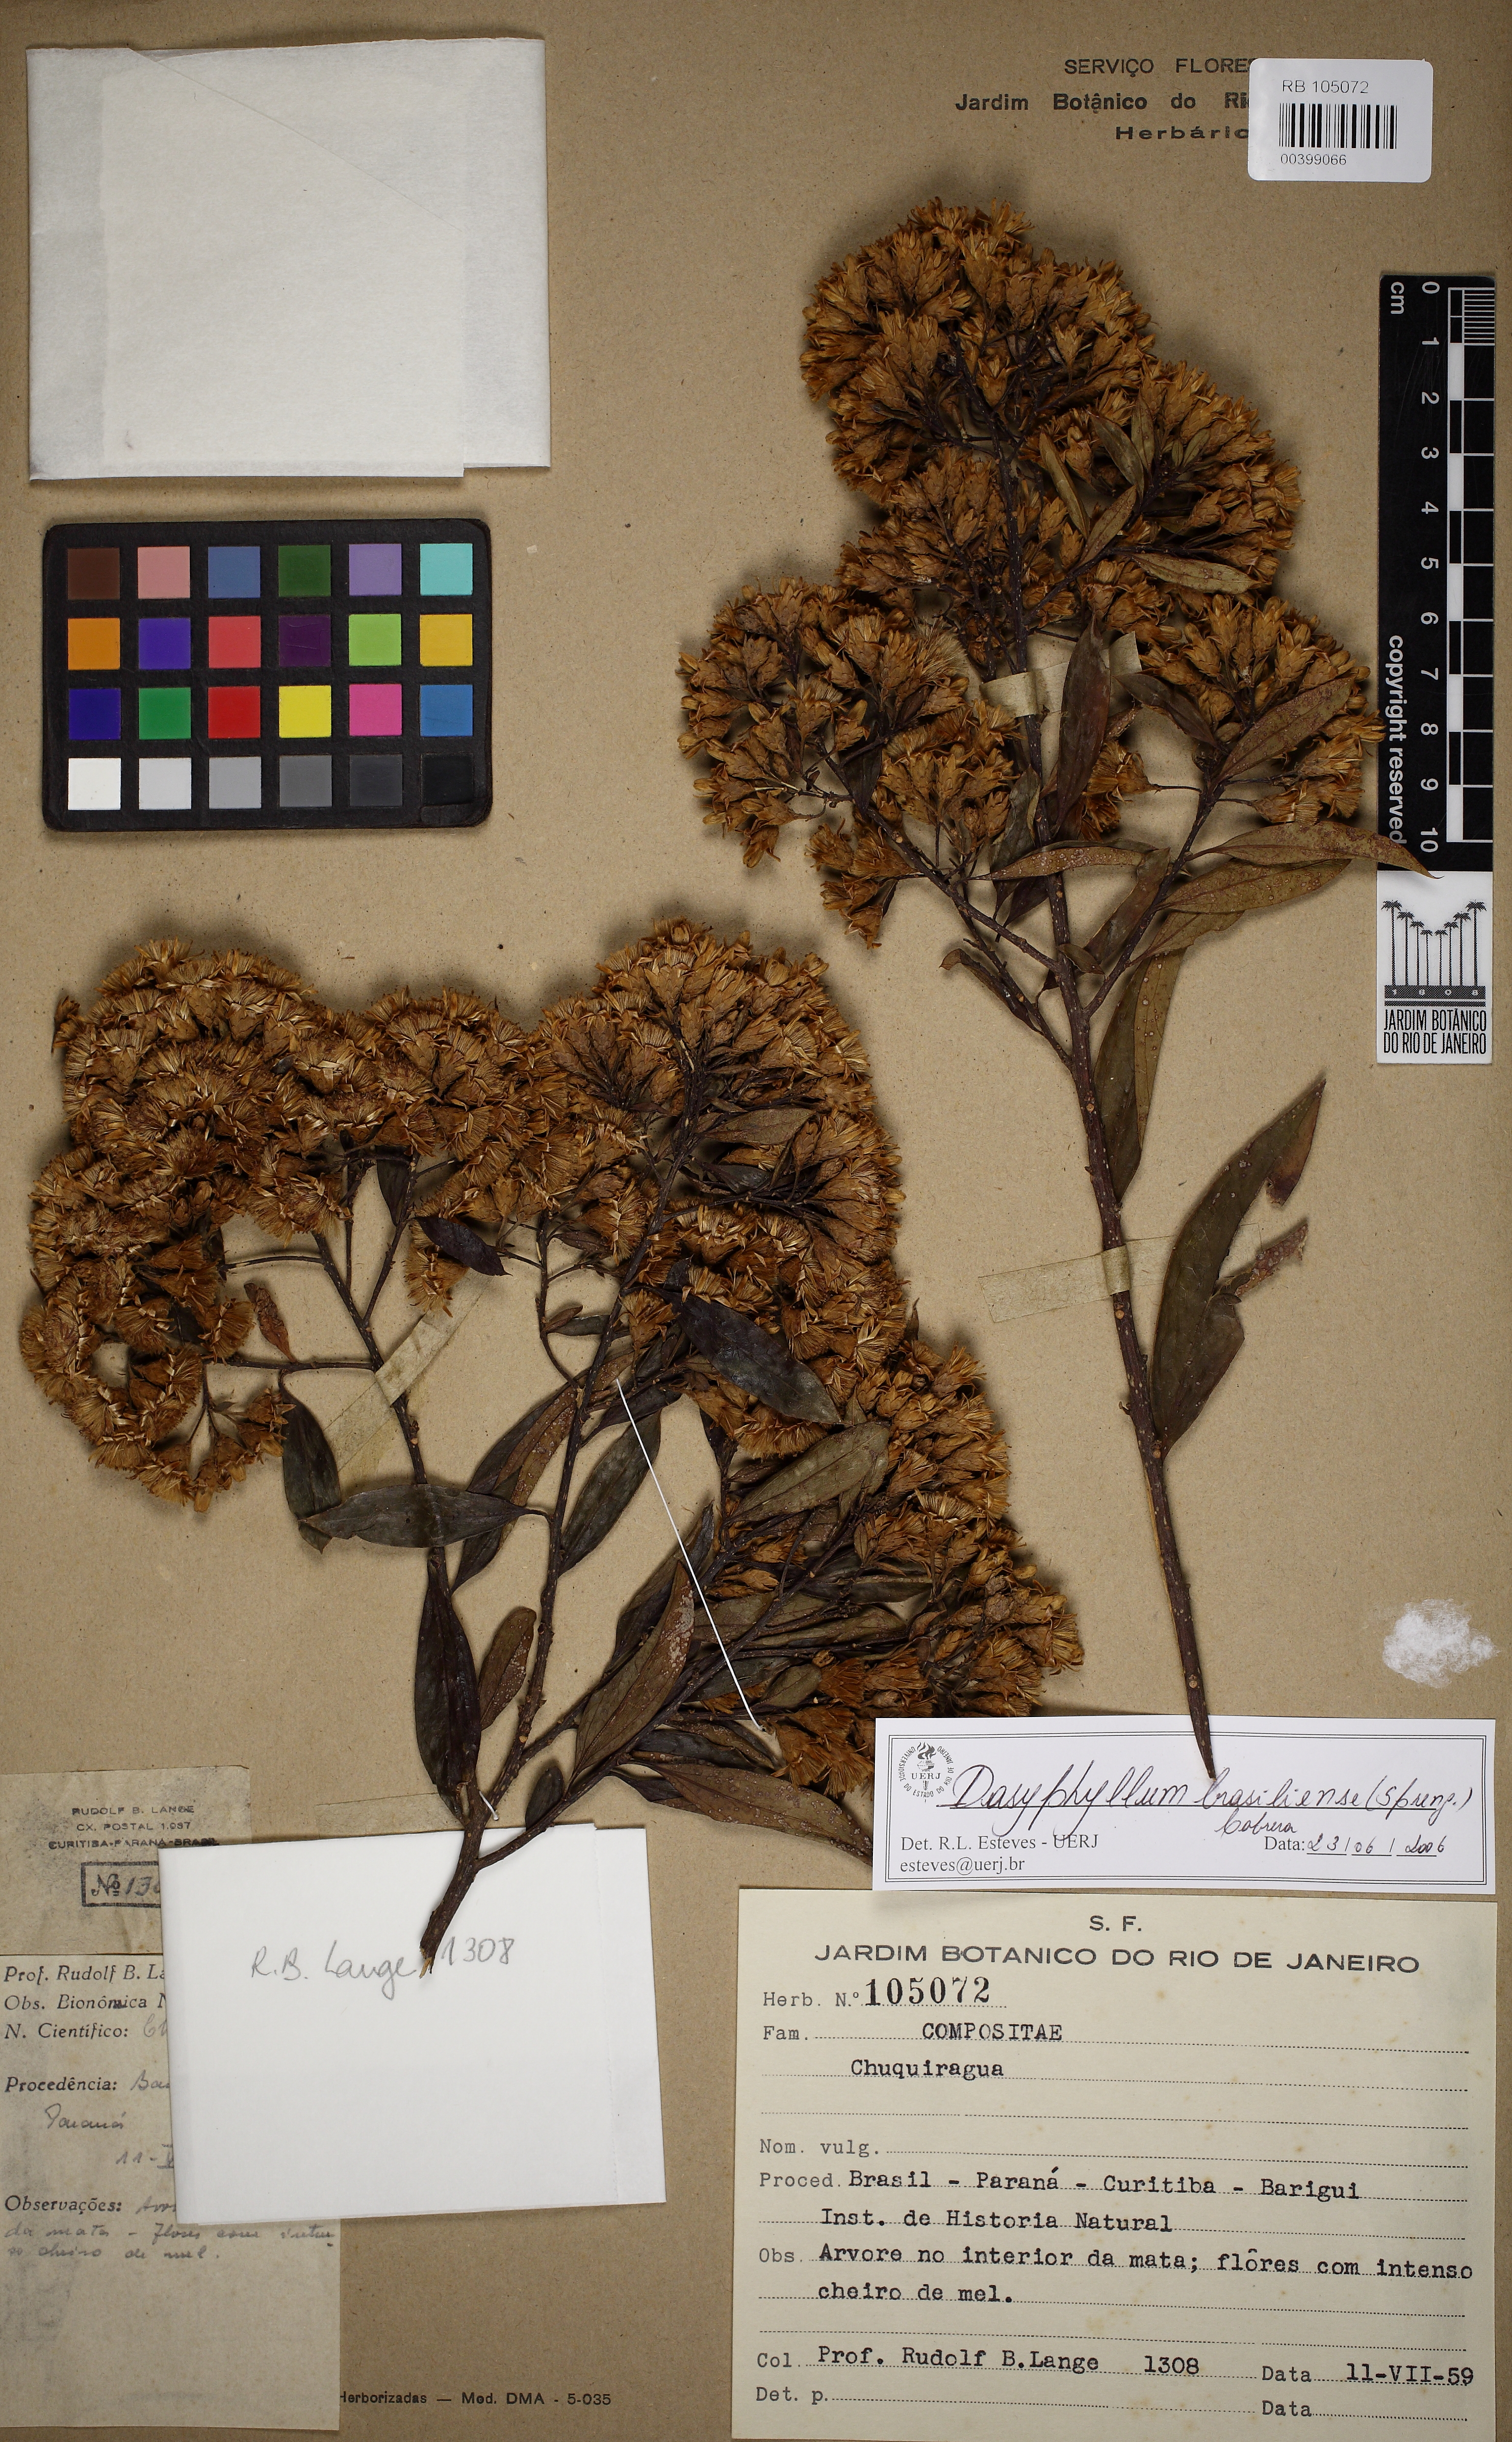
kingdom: Plantae
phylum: Tracheophyta
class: Magnoliopsida
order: Asterales
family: Asteraceae
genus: Dasyphyllum
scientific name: Dasyphyllum brasiliense
